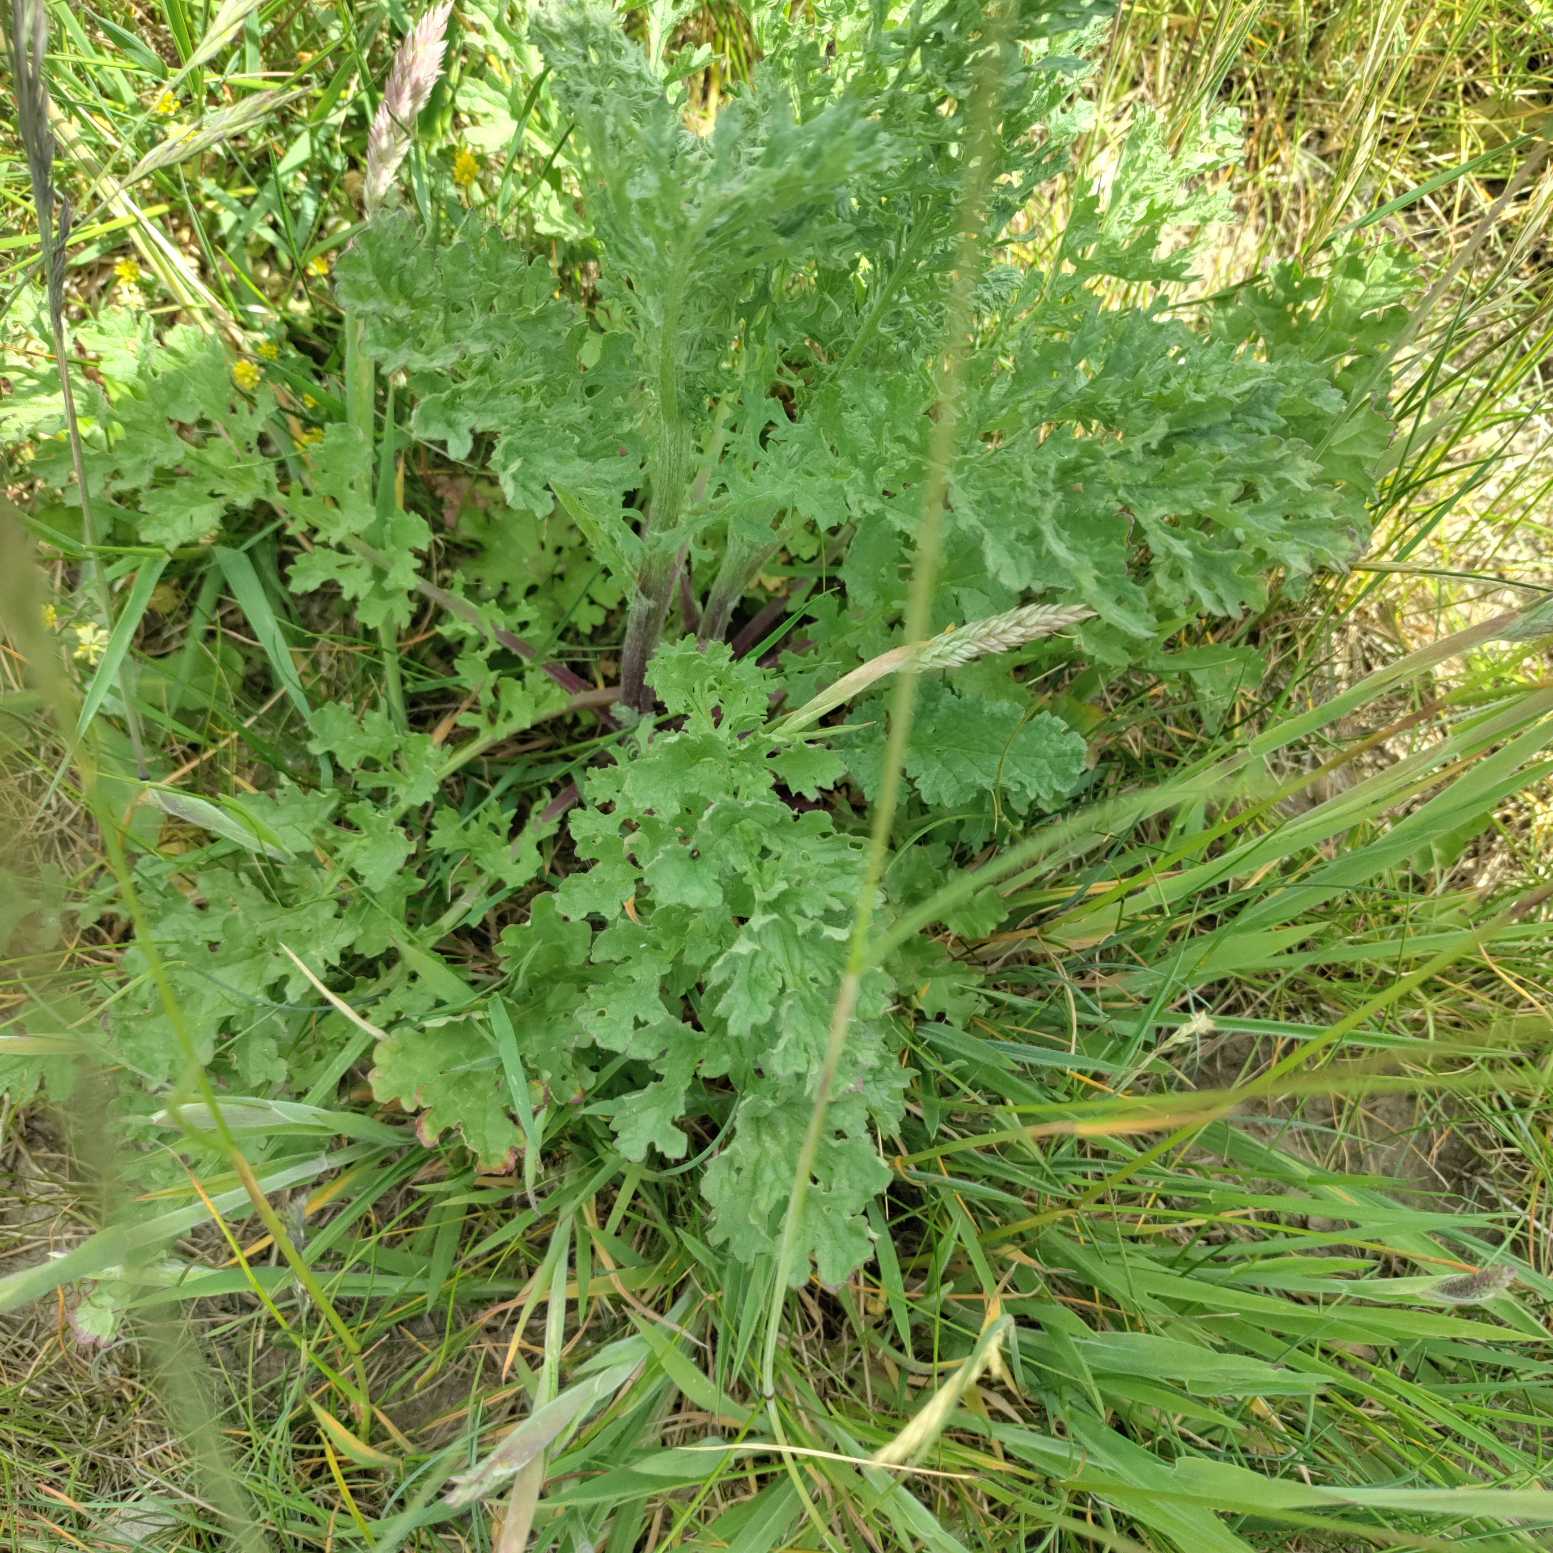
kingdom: Plantae
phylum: Tracheophyta
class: Magnoliopsida
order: Asterales
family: Asteraceae
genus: Jacobaea
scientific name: Jacobaea vulgaris
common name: Eng-brandbæger
